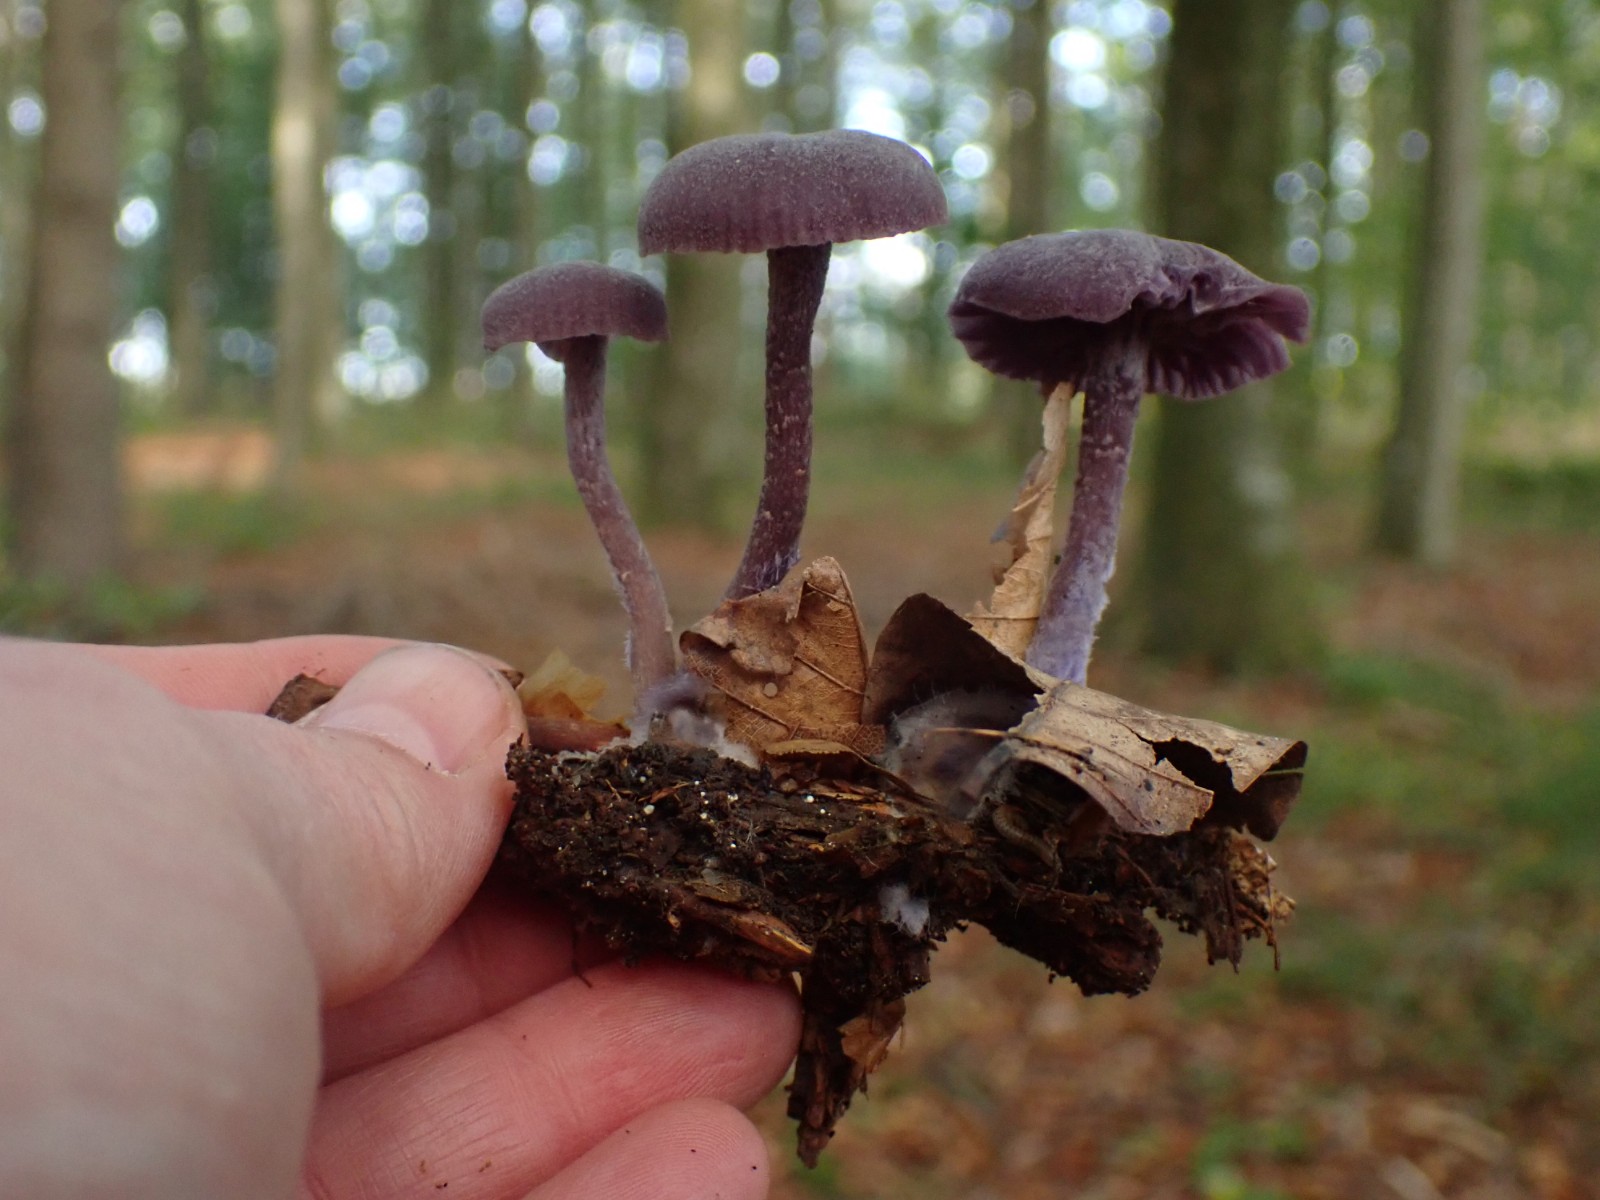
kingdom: Fungi
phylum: Basidiomycota
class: Agaricomycetes
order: Agaricales
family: Hydnangiaceae
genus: Laccaria
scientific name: Laccaria amethystina
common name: violet ametysthat
